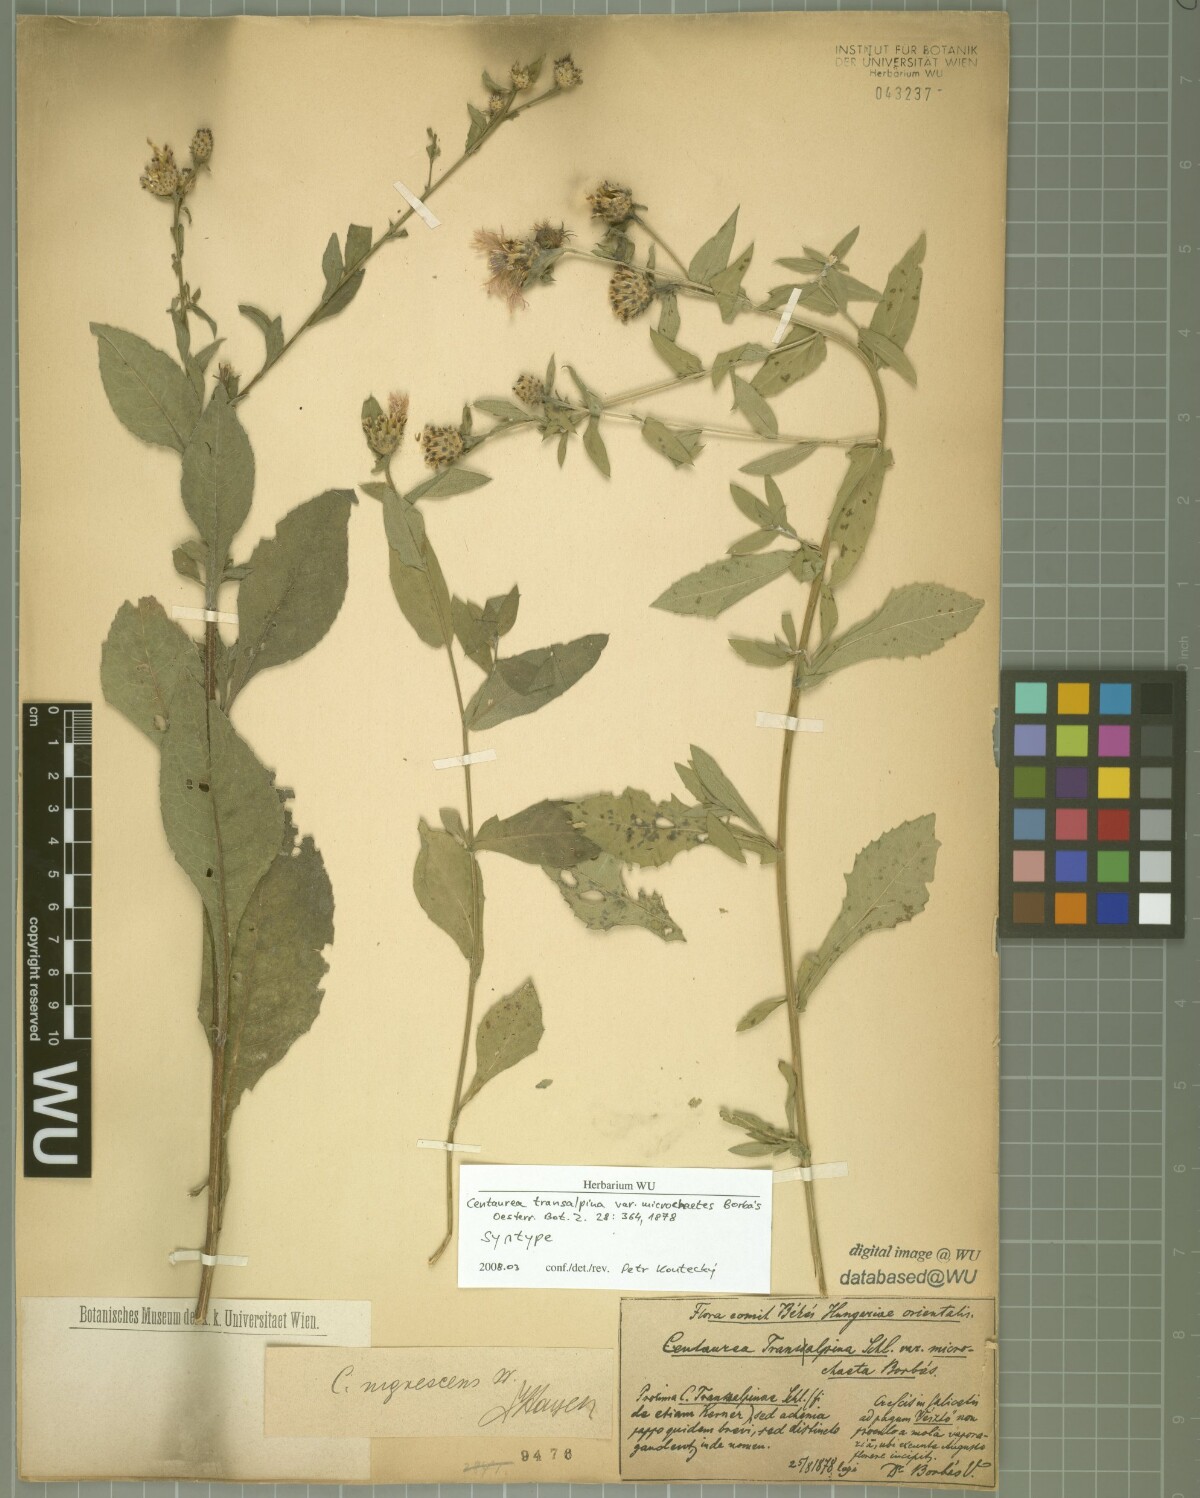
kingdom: Plantae
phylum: Tracheophyta
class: Magnoliopsida
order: Asterales
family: Asteraceae
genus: Centaurea
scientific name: Centaurea nigrescens
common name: Tyrol knapweed
